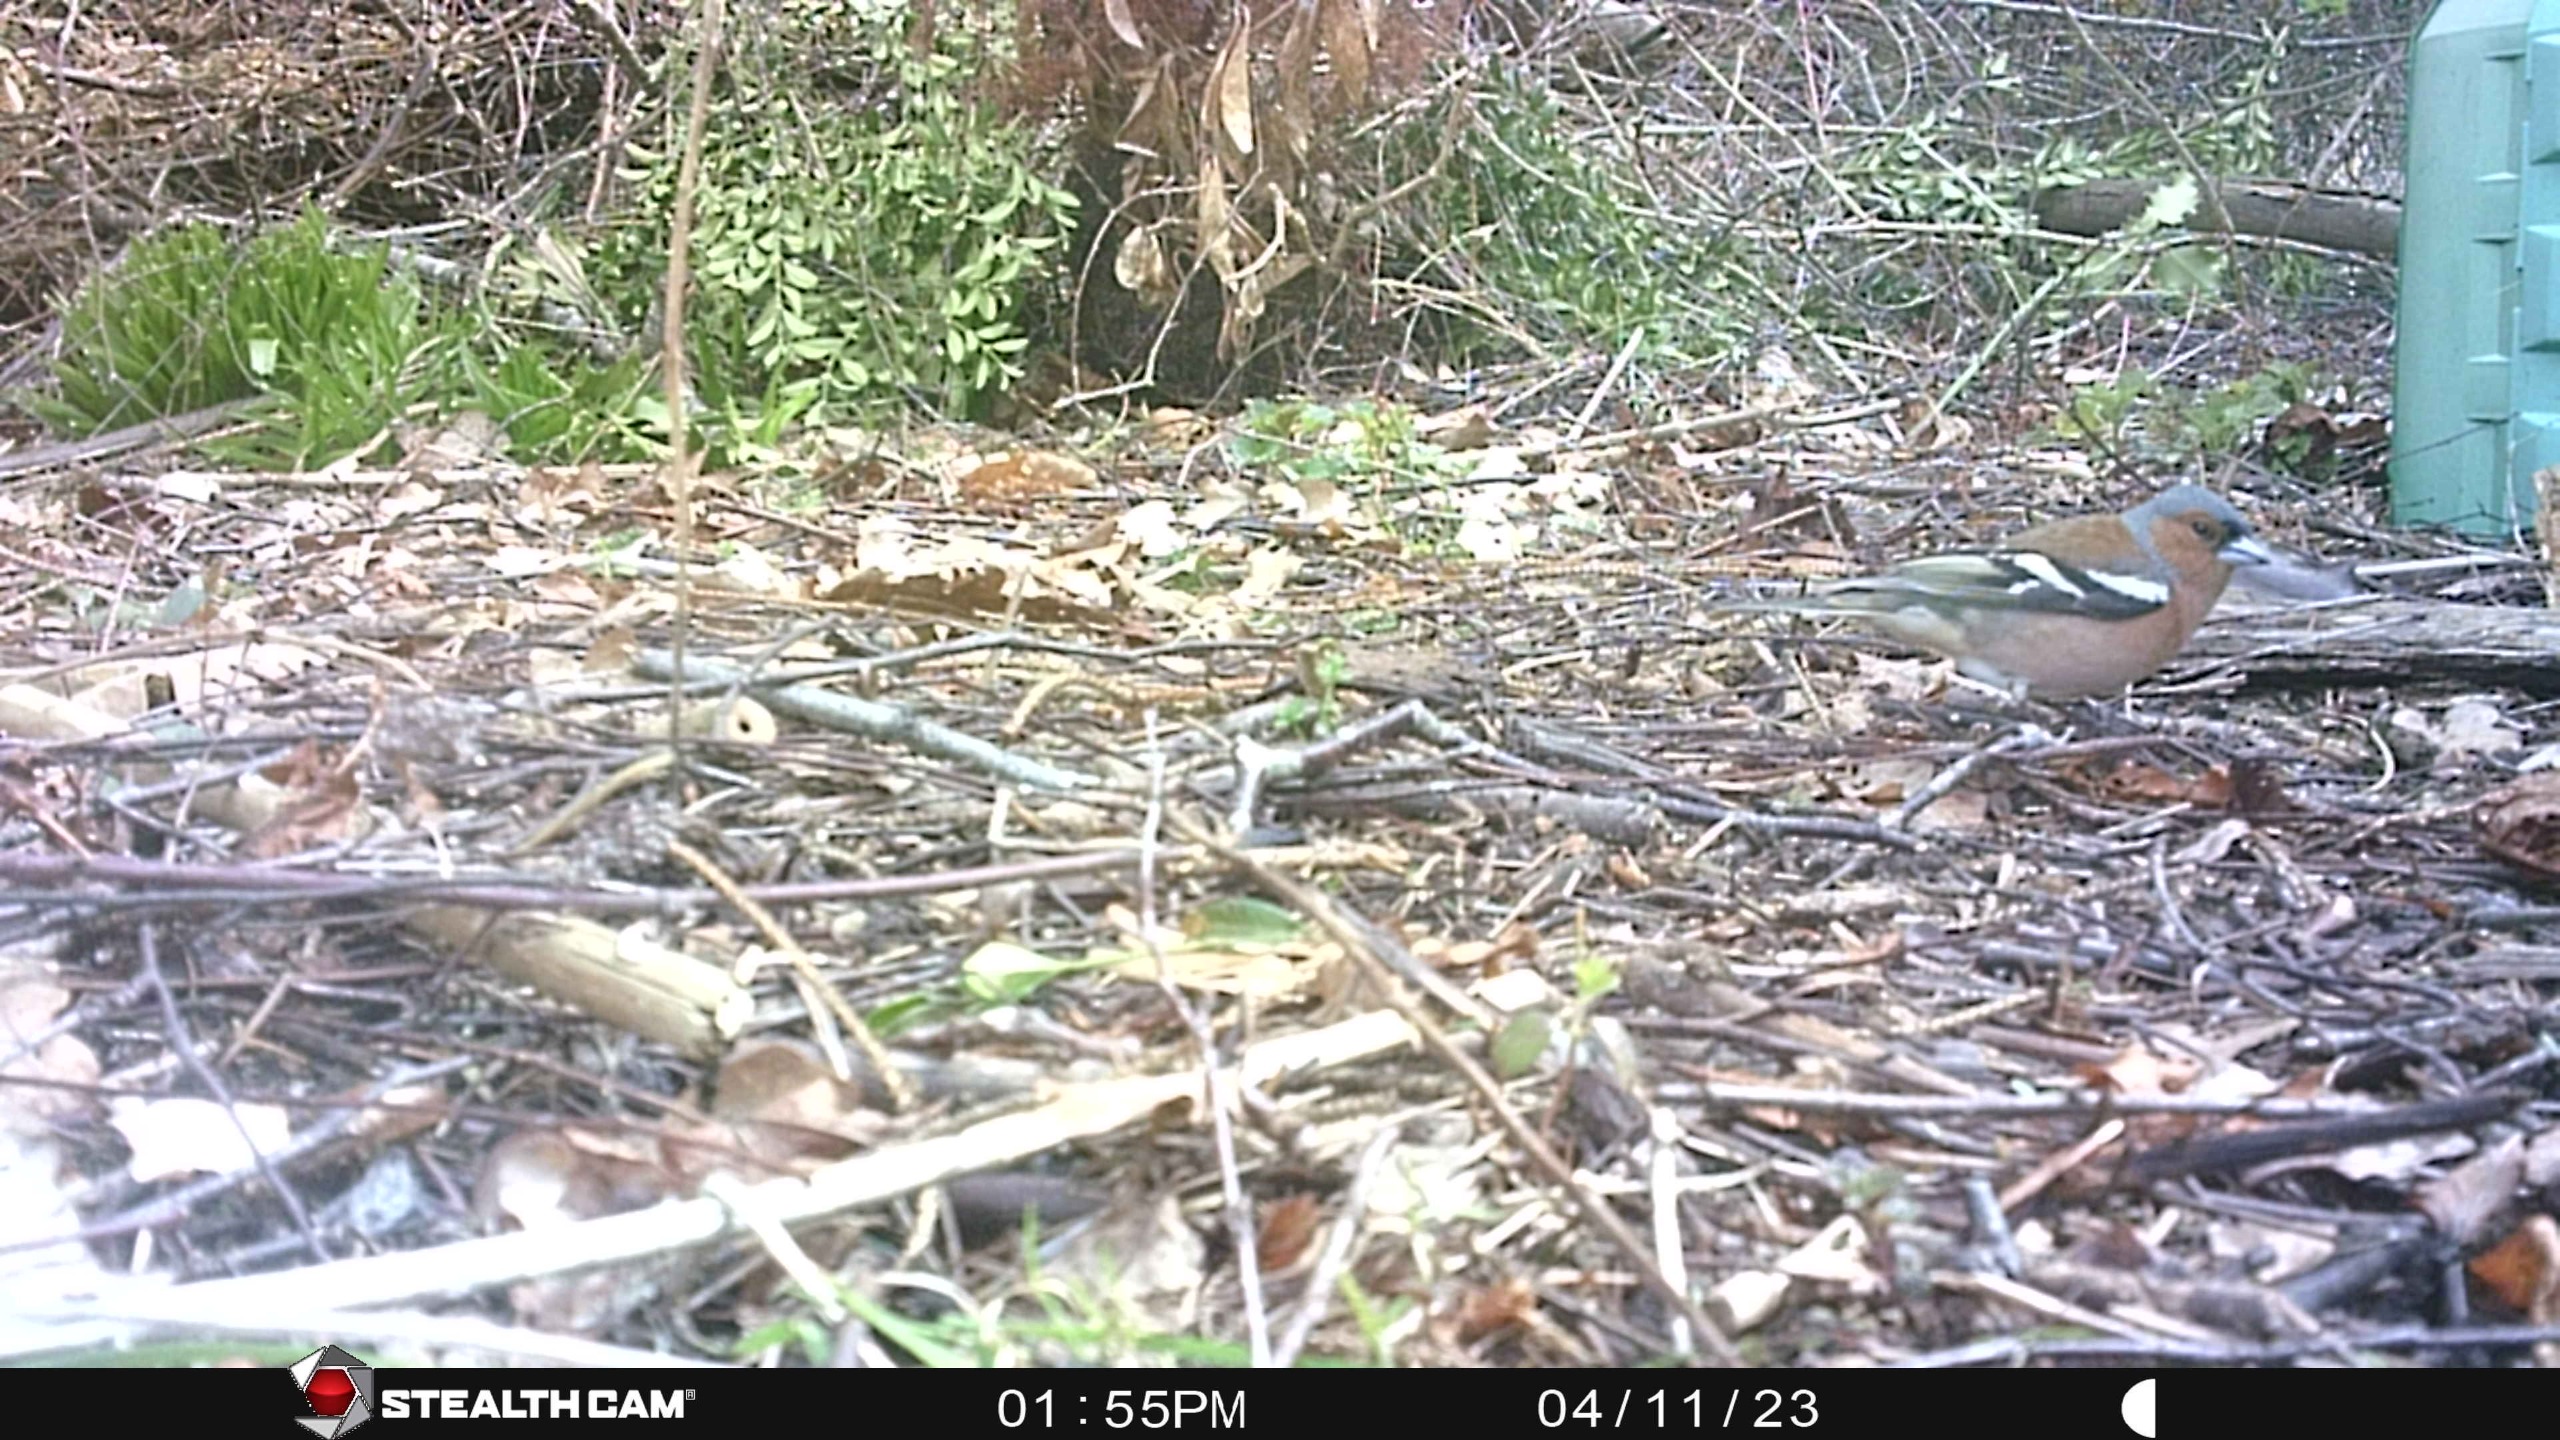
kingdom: Animalia
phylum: Chordata
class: Aves
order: Passeriformes
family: Fringillidae
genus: Fringilla
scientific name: Fringilla coelebs
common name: Bogfinke
